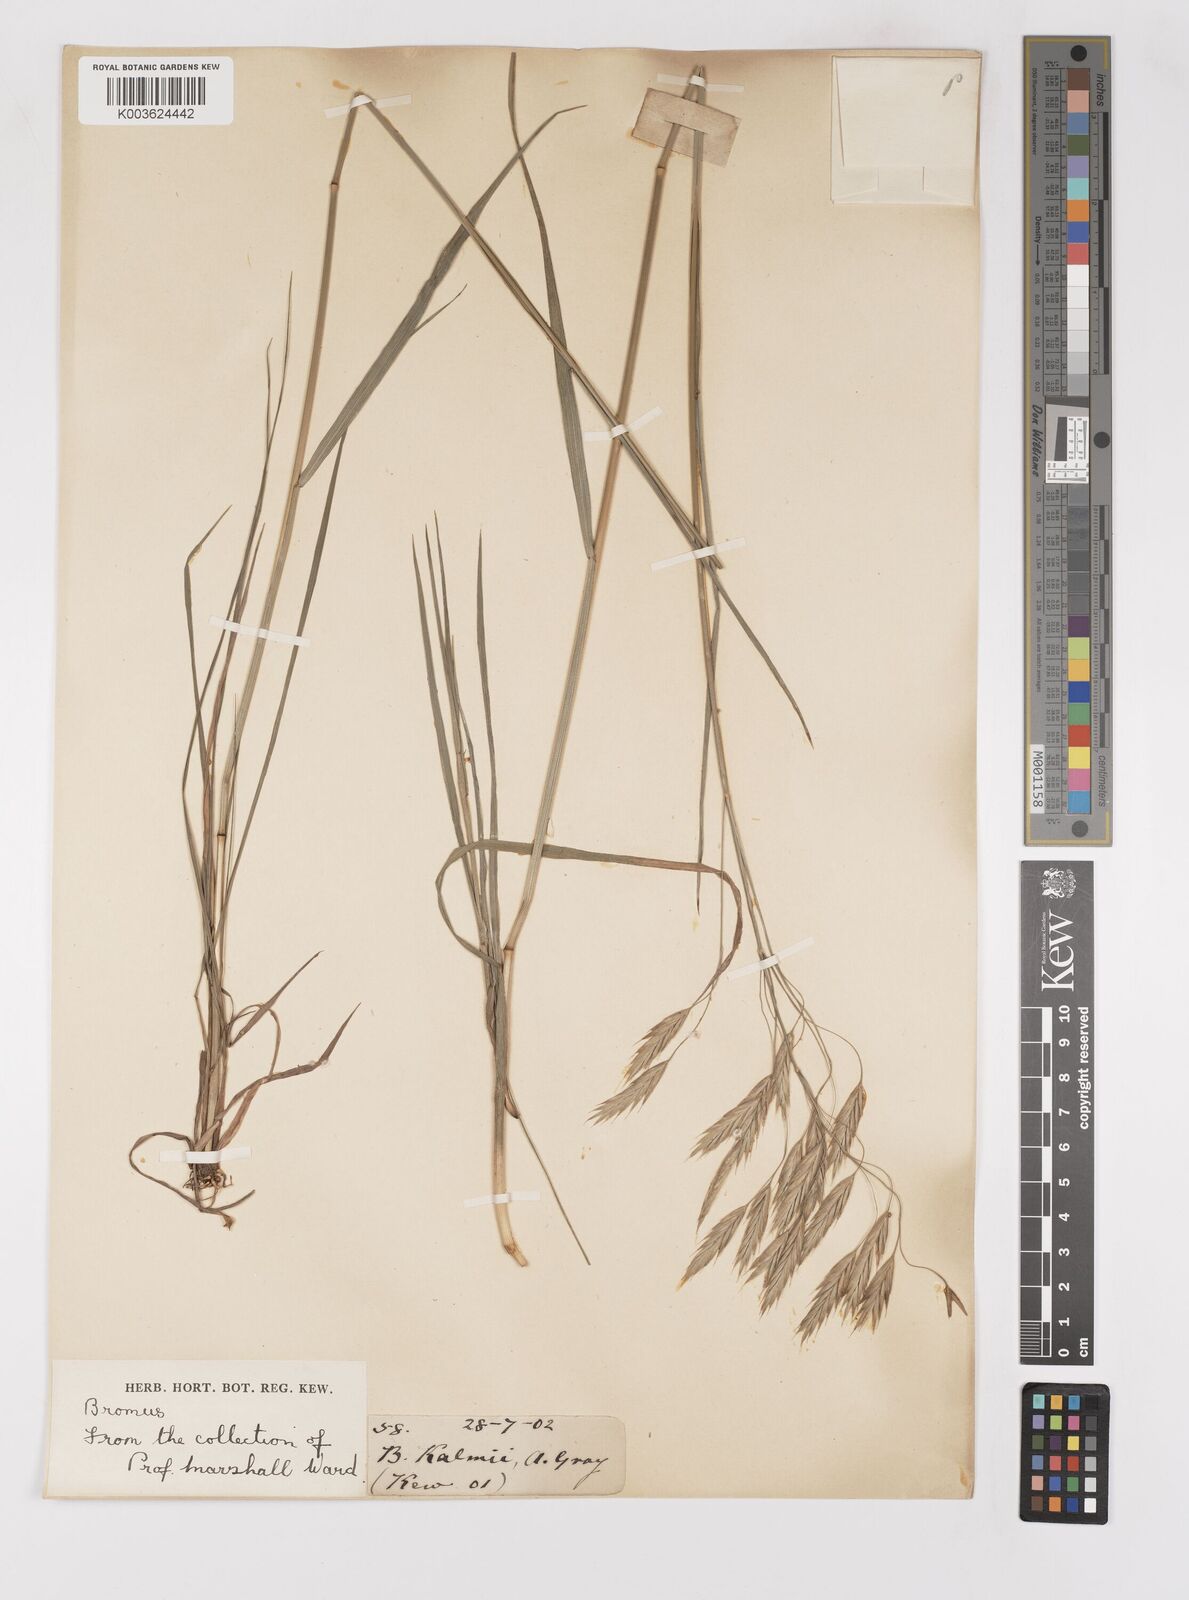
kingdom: Plantae
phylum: Tracheophyta
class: Liliopsida
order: Poales
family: Poaceae
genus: Bromus
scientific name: Bromus
